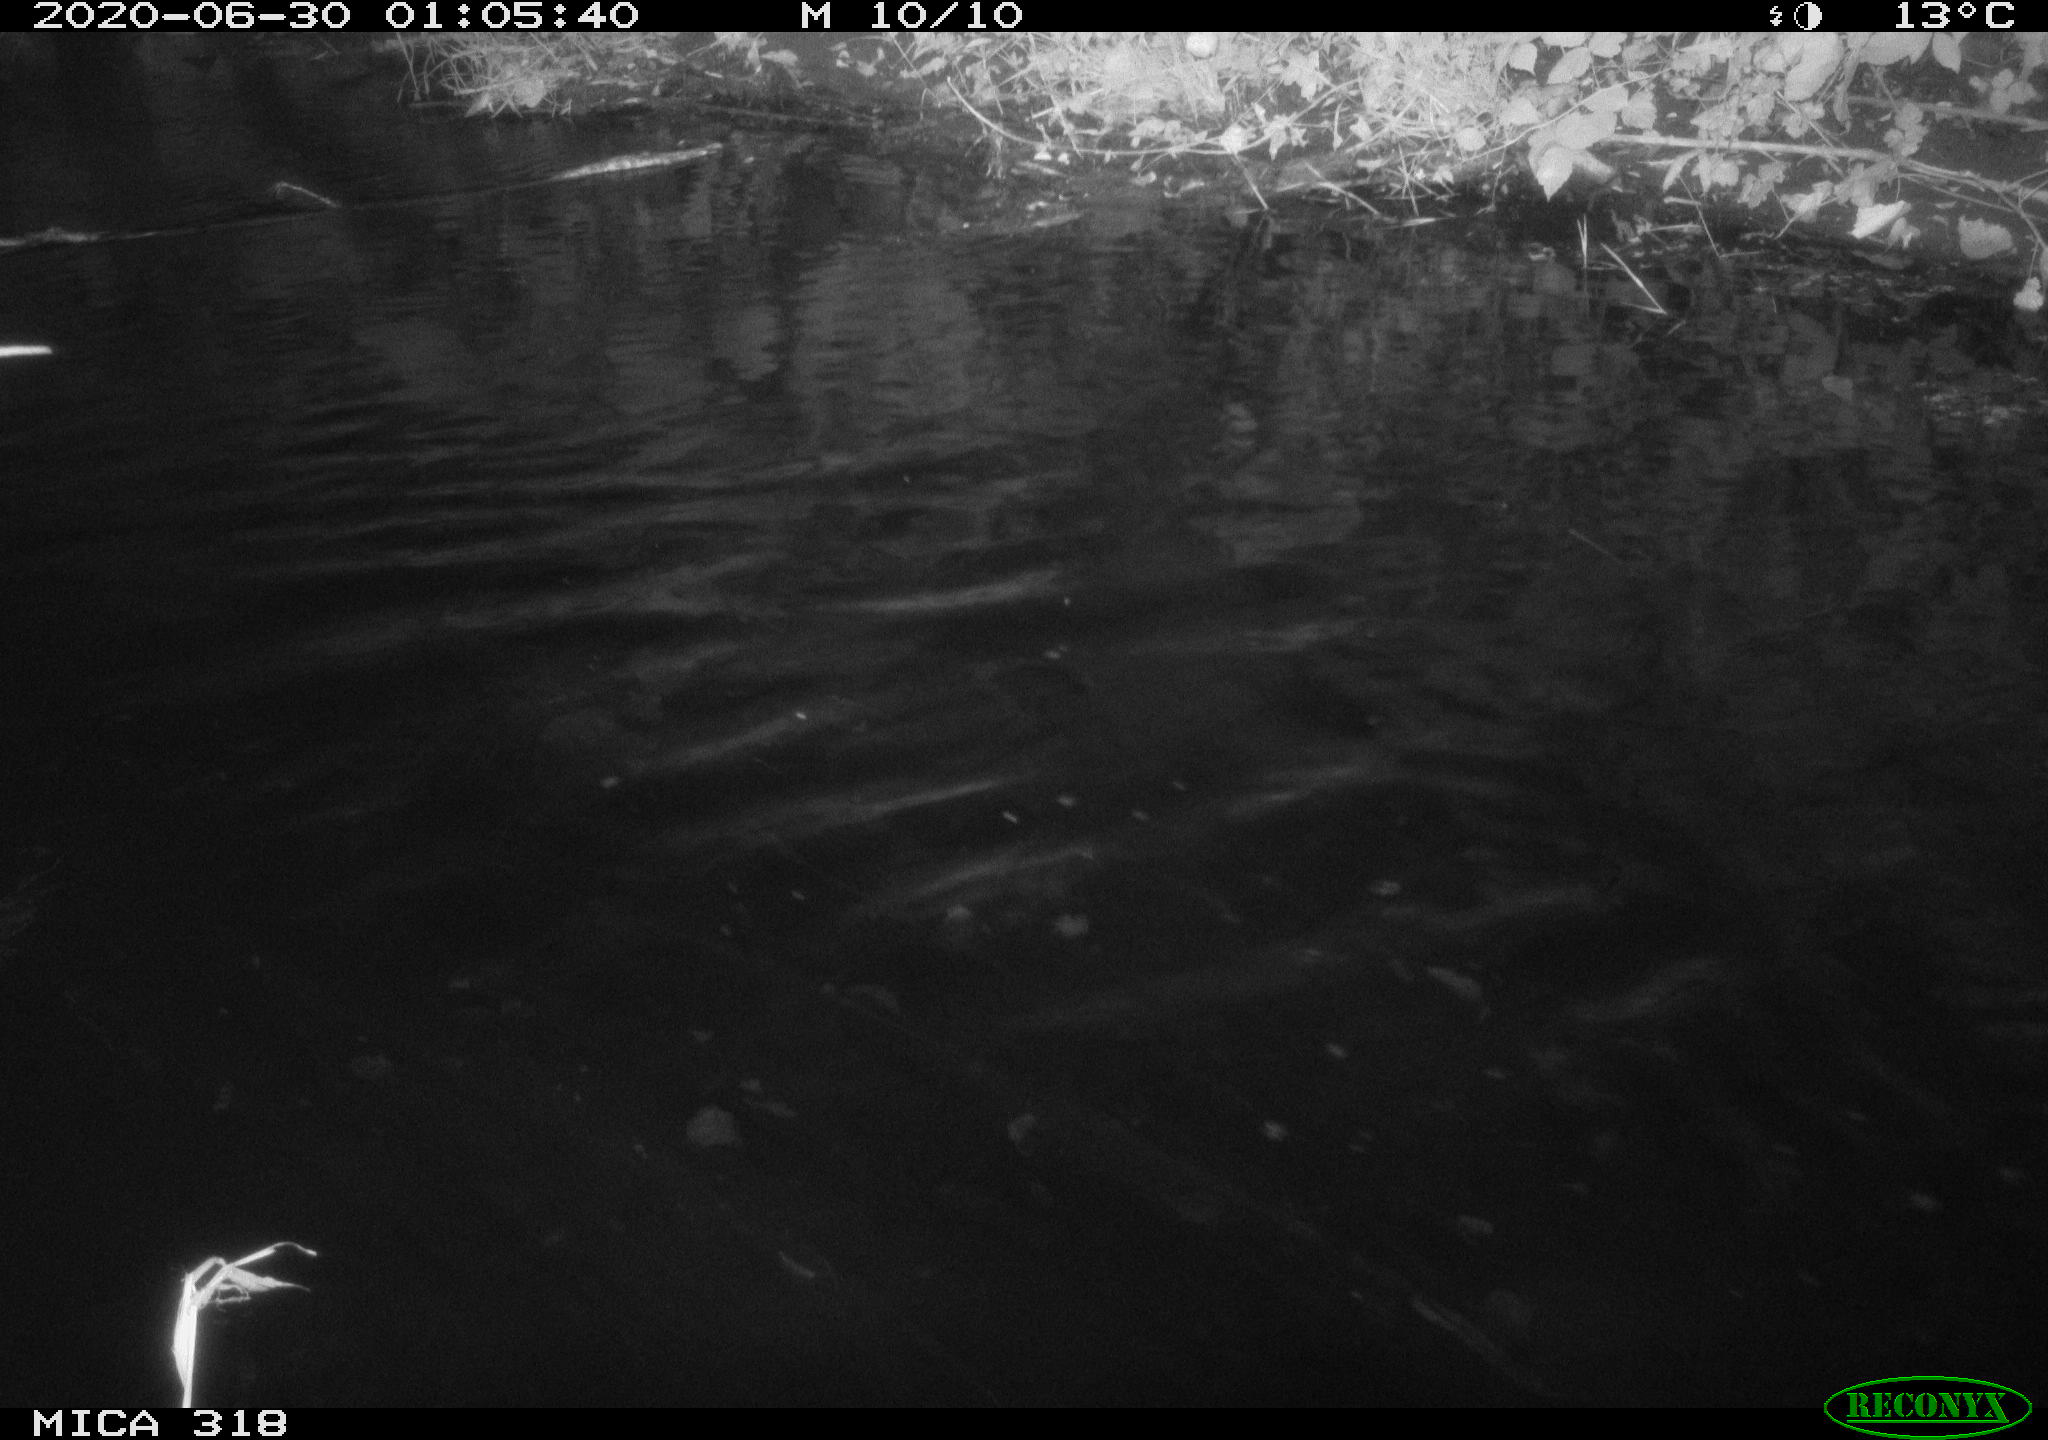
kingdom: Animalia
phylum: Chordata
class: Aves
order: Anseriformes
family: Anatidae
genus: Anas
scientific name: Anas platyrhynchos
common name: Mallard
